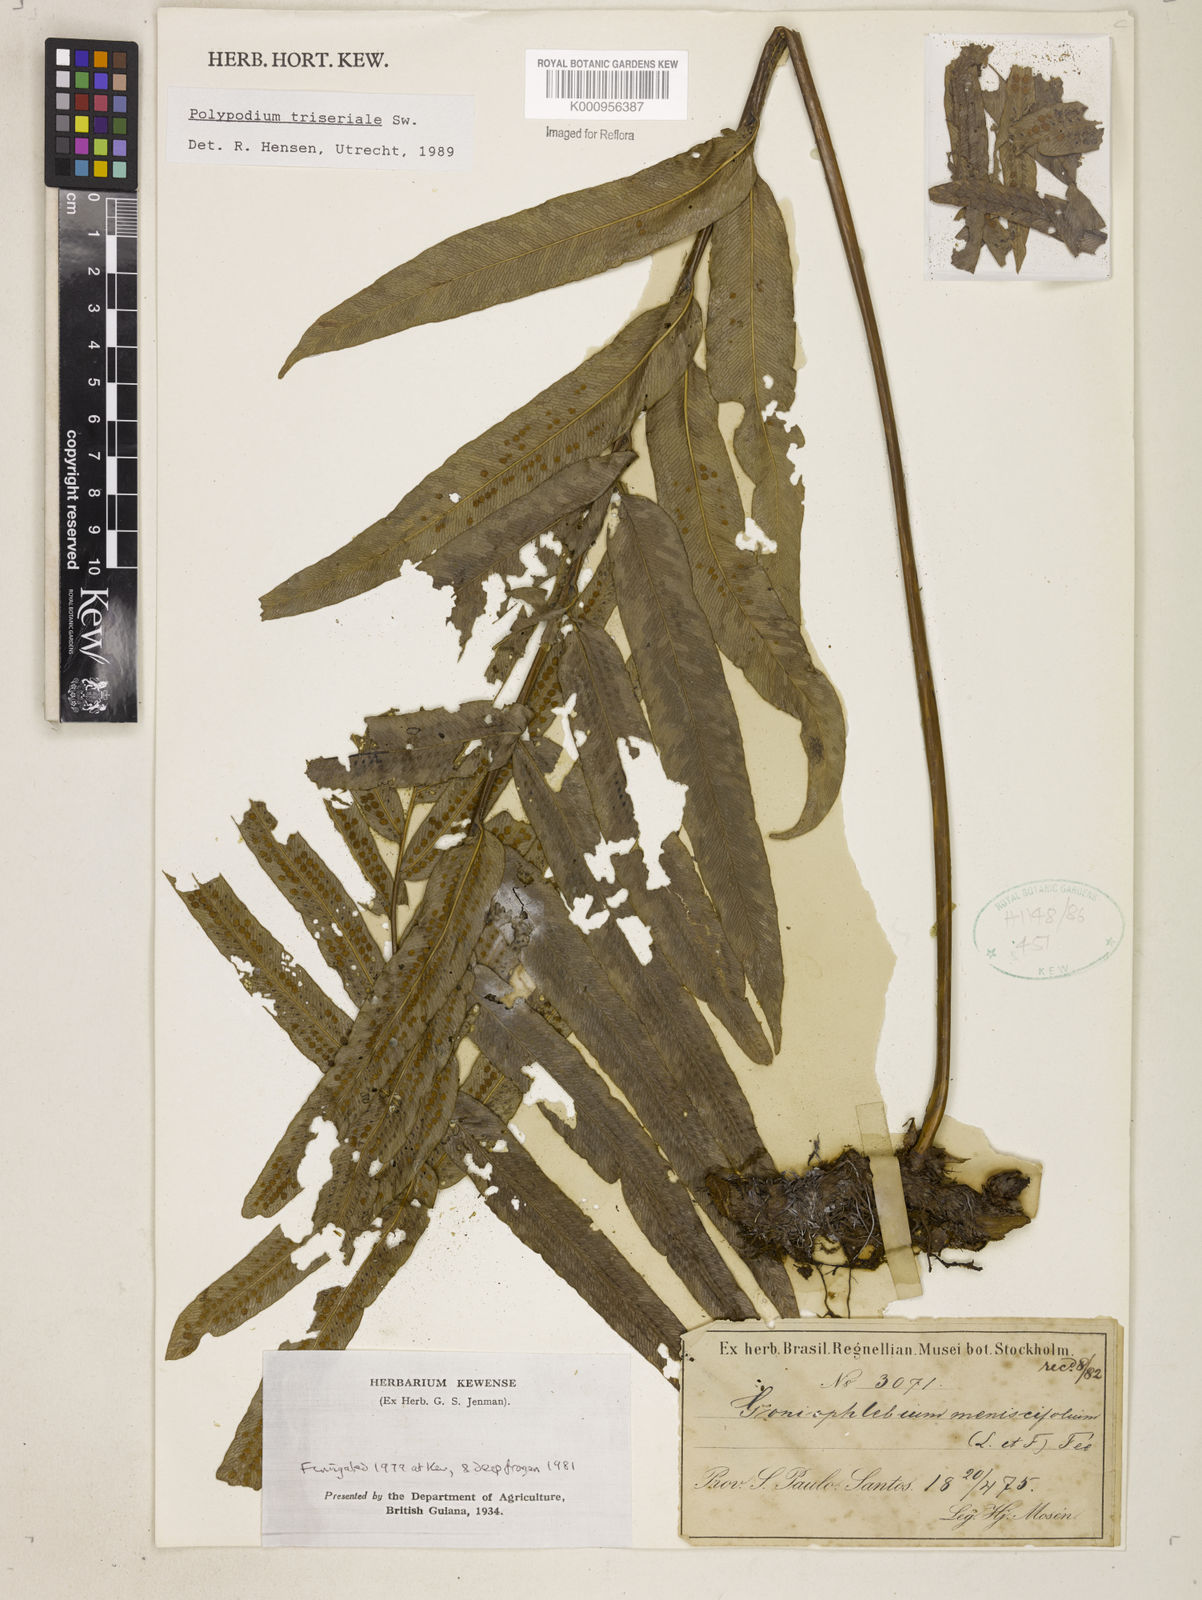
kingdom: Plantae
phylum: Tracheophyta
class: Polypodiopsida
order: Polypodiales
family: Polypodiaceae
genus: Serpocaulon
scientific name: Serpocaulon triseriale
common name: Angle-vein fern
